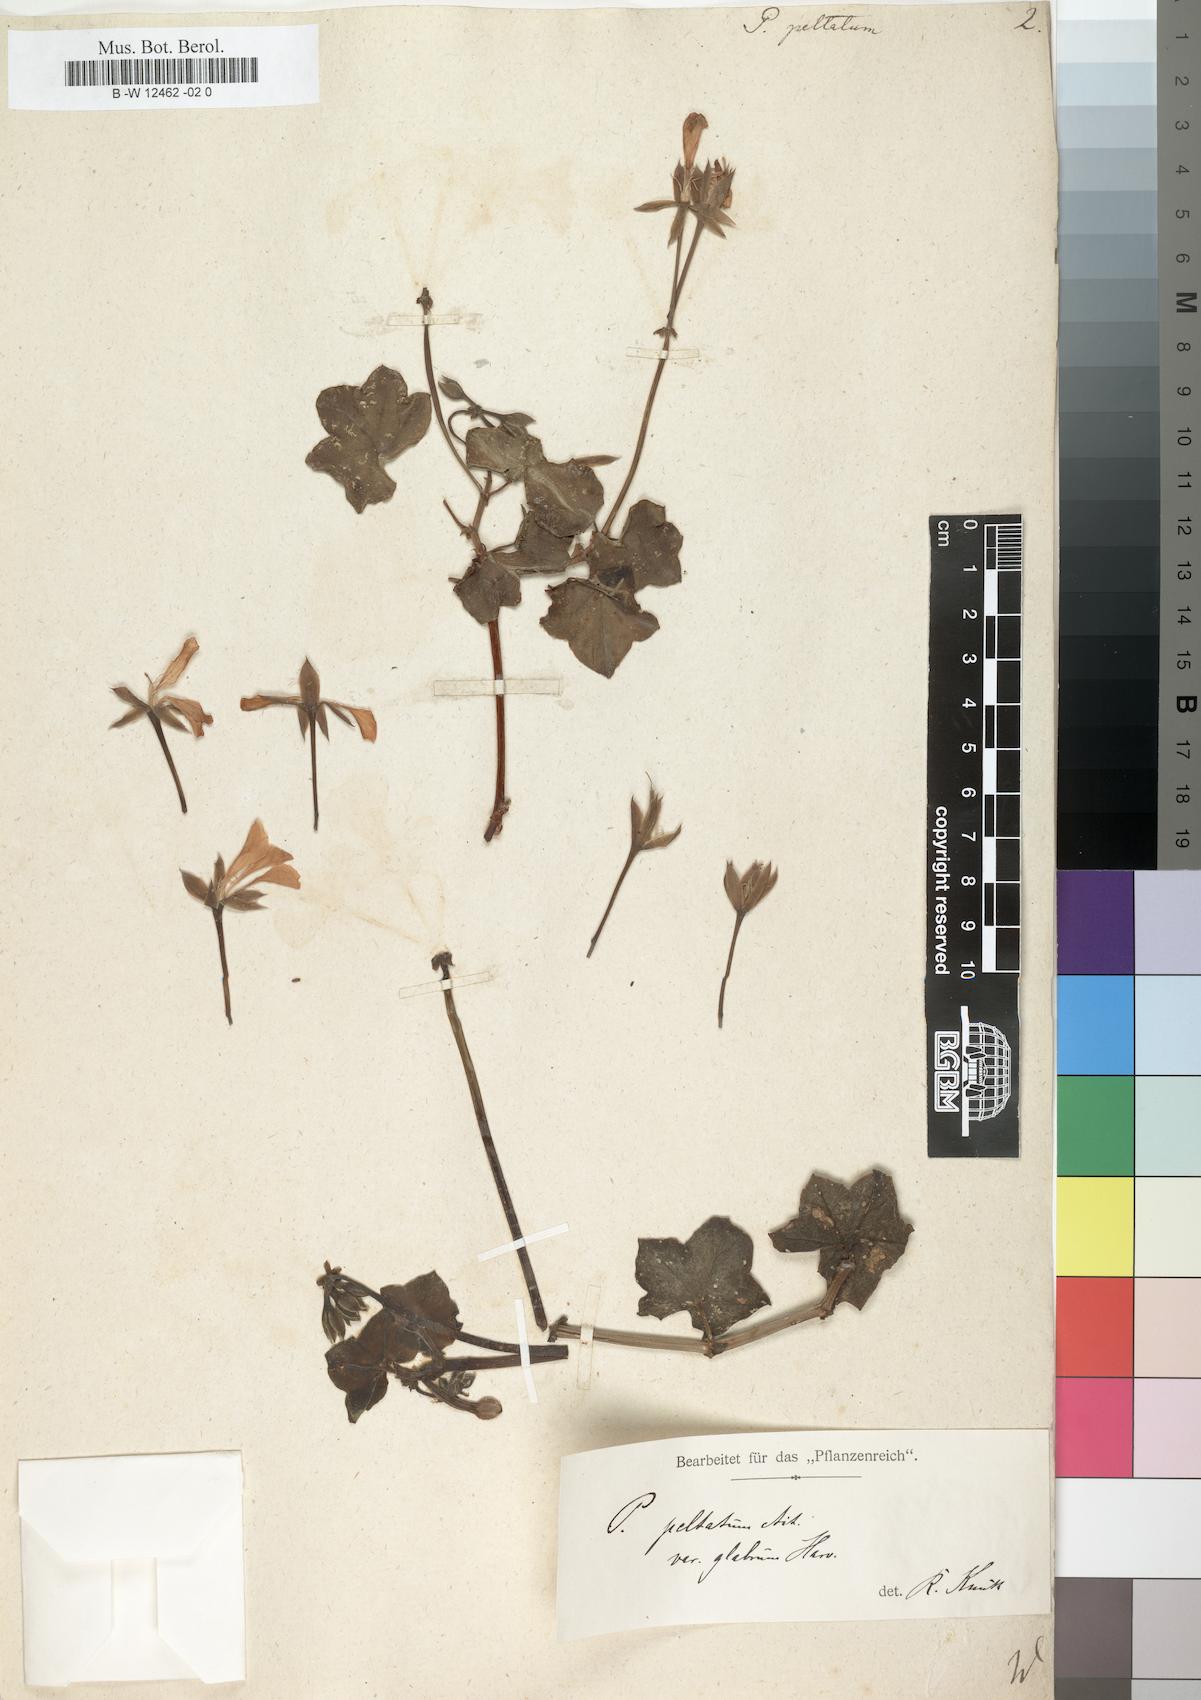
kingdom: Plantae
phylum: Tracheophyta
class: Magnoliopsida
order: Geraniales
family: Geraniaceae
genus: Pelargonium
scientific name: Pelargonium peltatum
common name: Ivyleaf geranium
